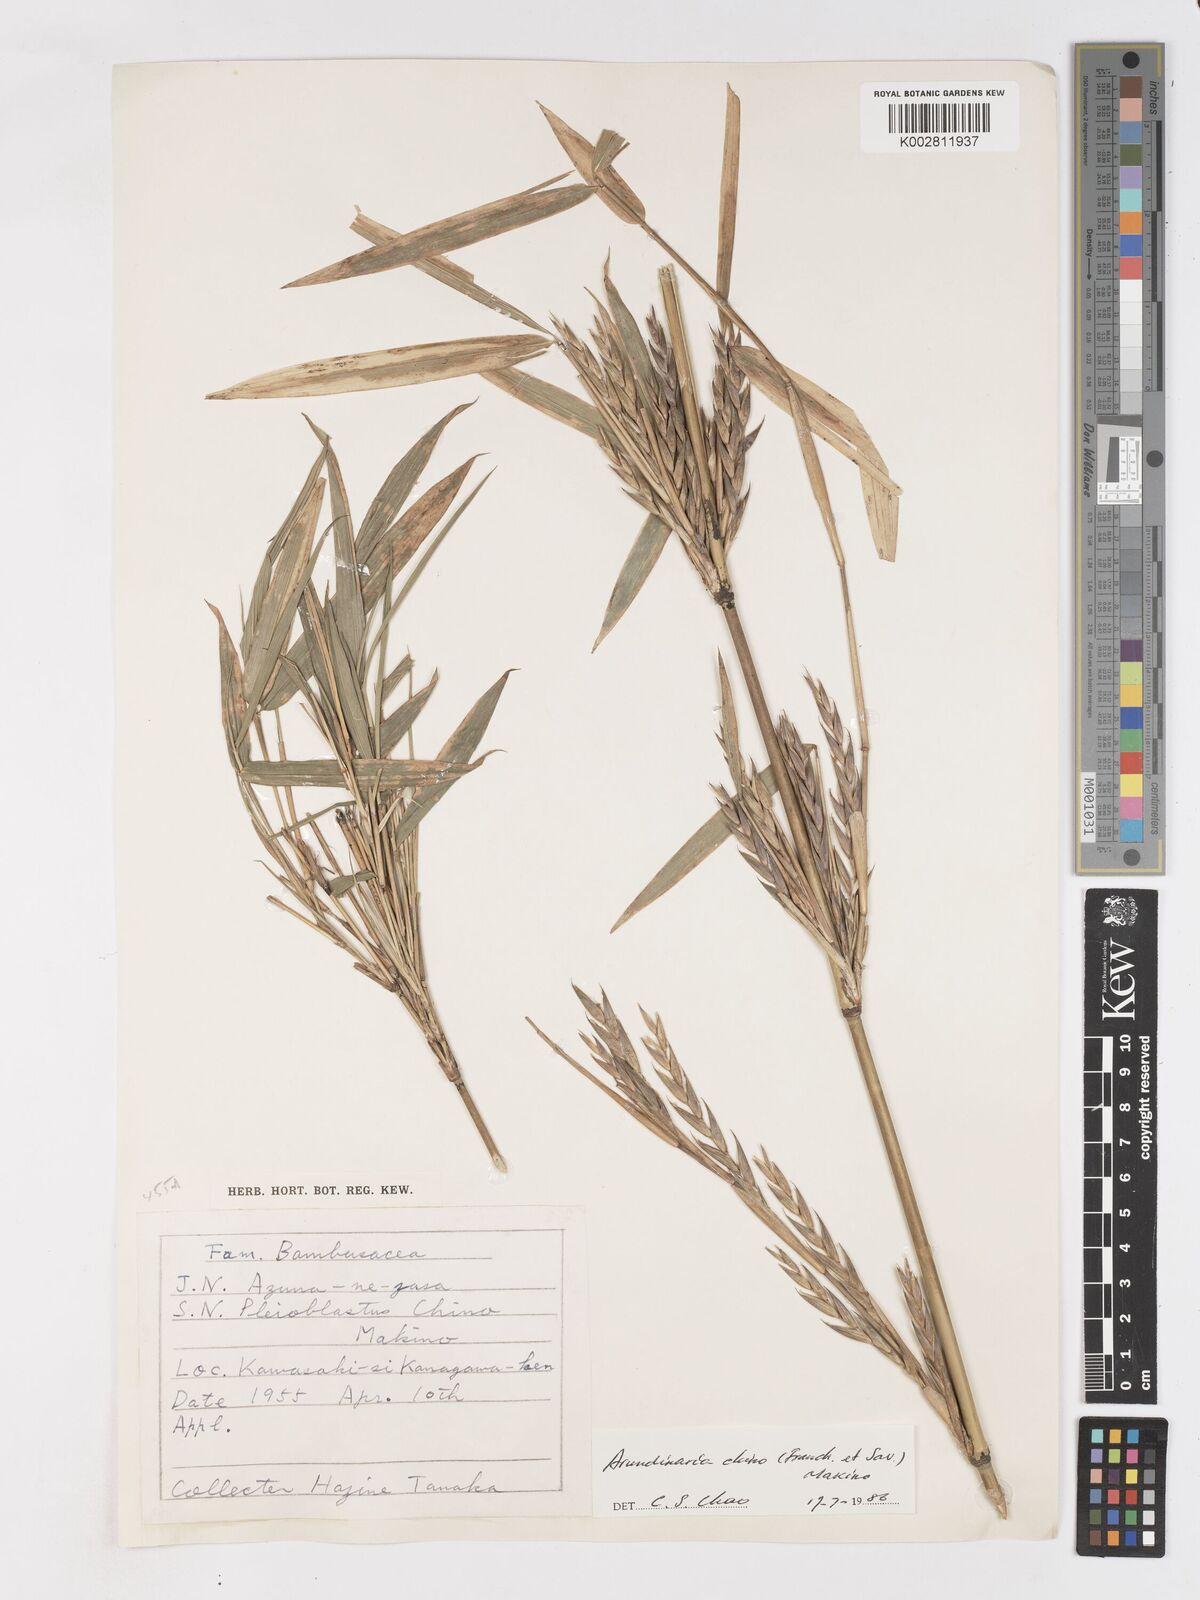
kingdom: Plantae
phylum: Tracheophyta
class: Liliopsida
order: Poales
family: Poaceae
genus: Pleioblastus
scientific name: Pleioblastus argenteostriatus
